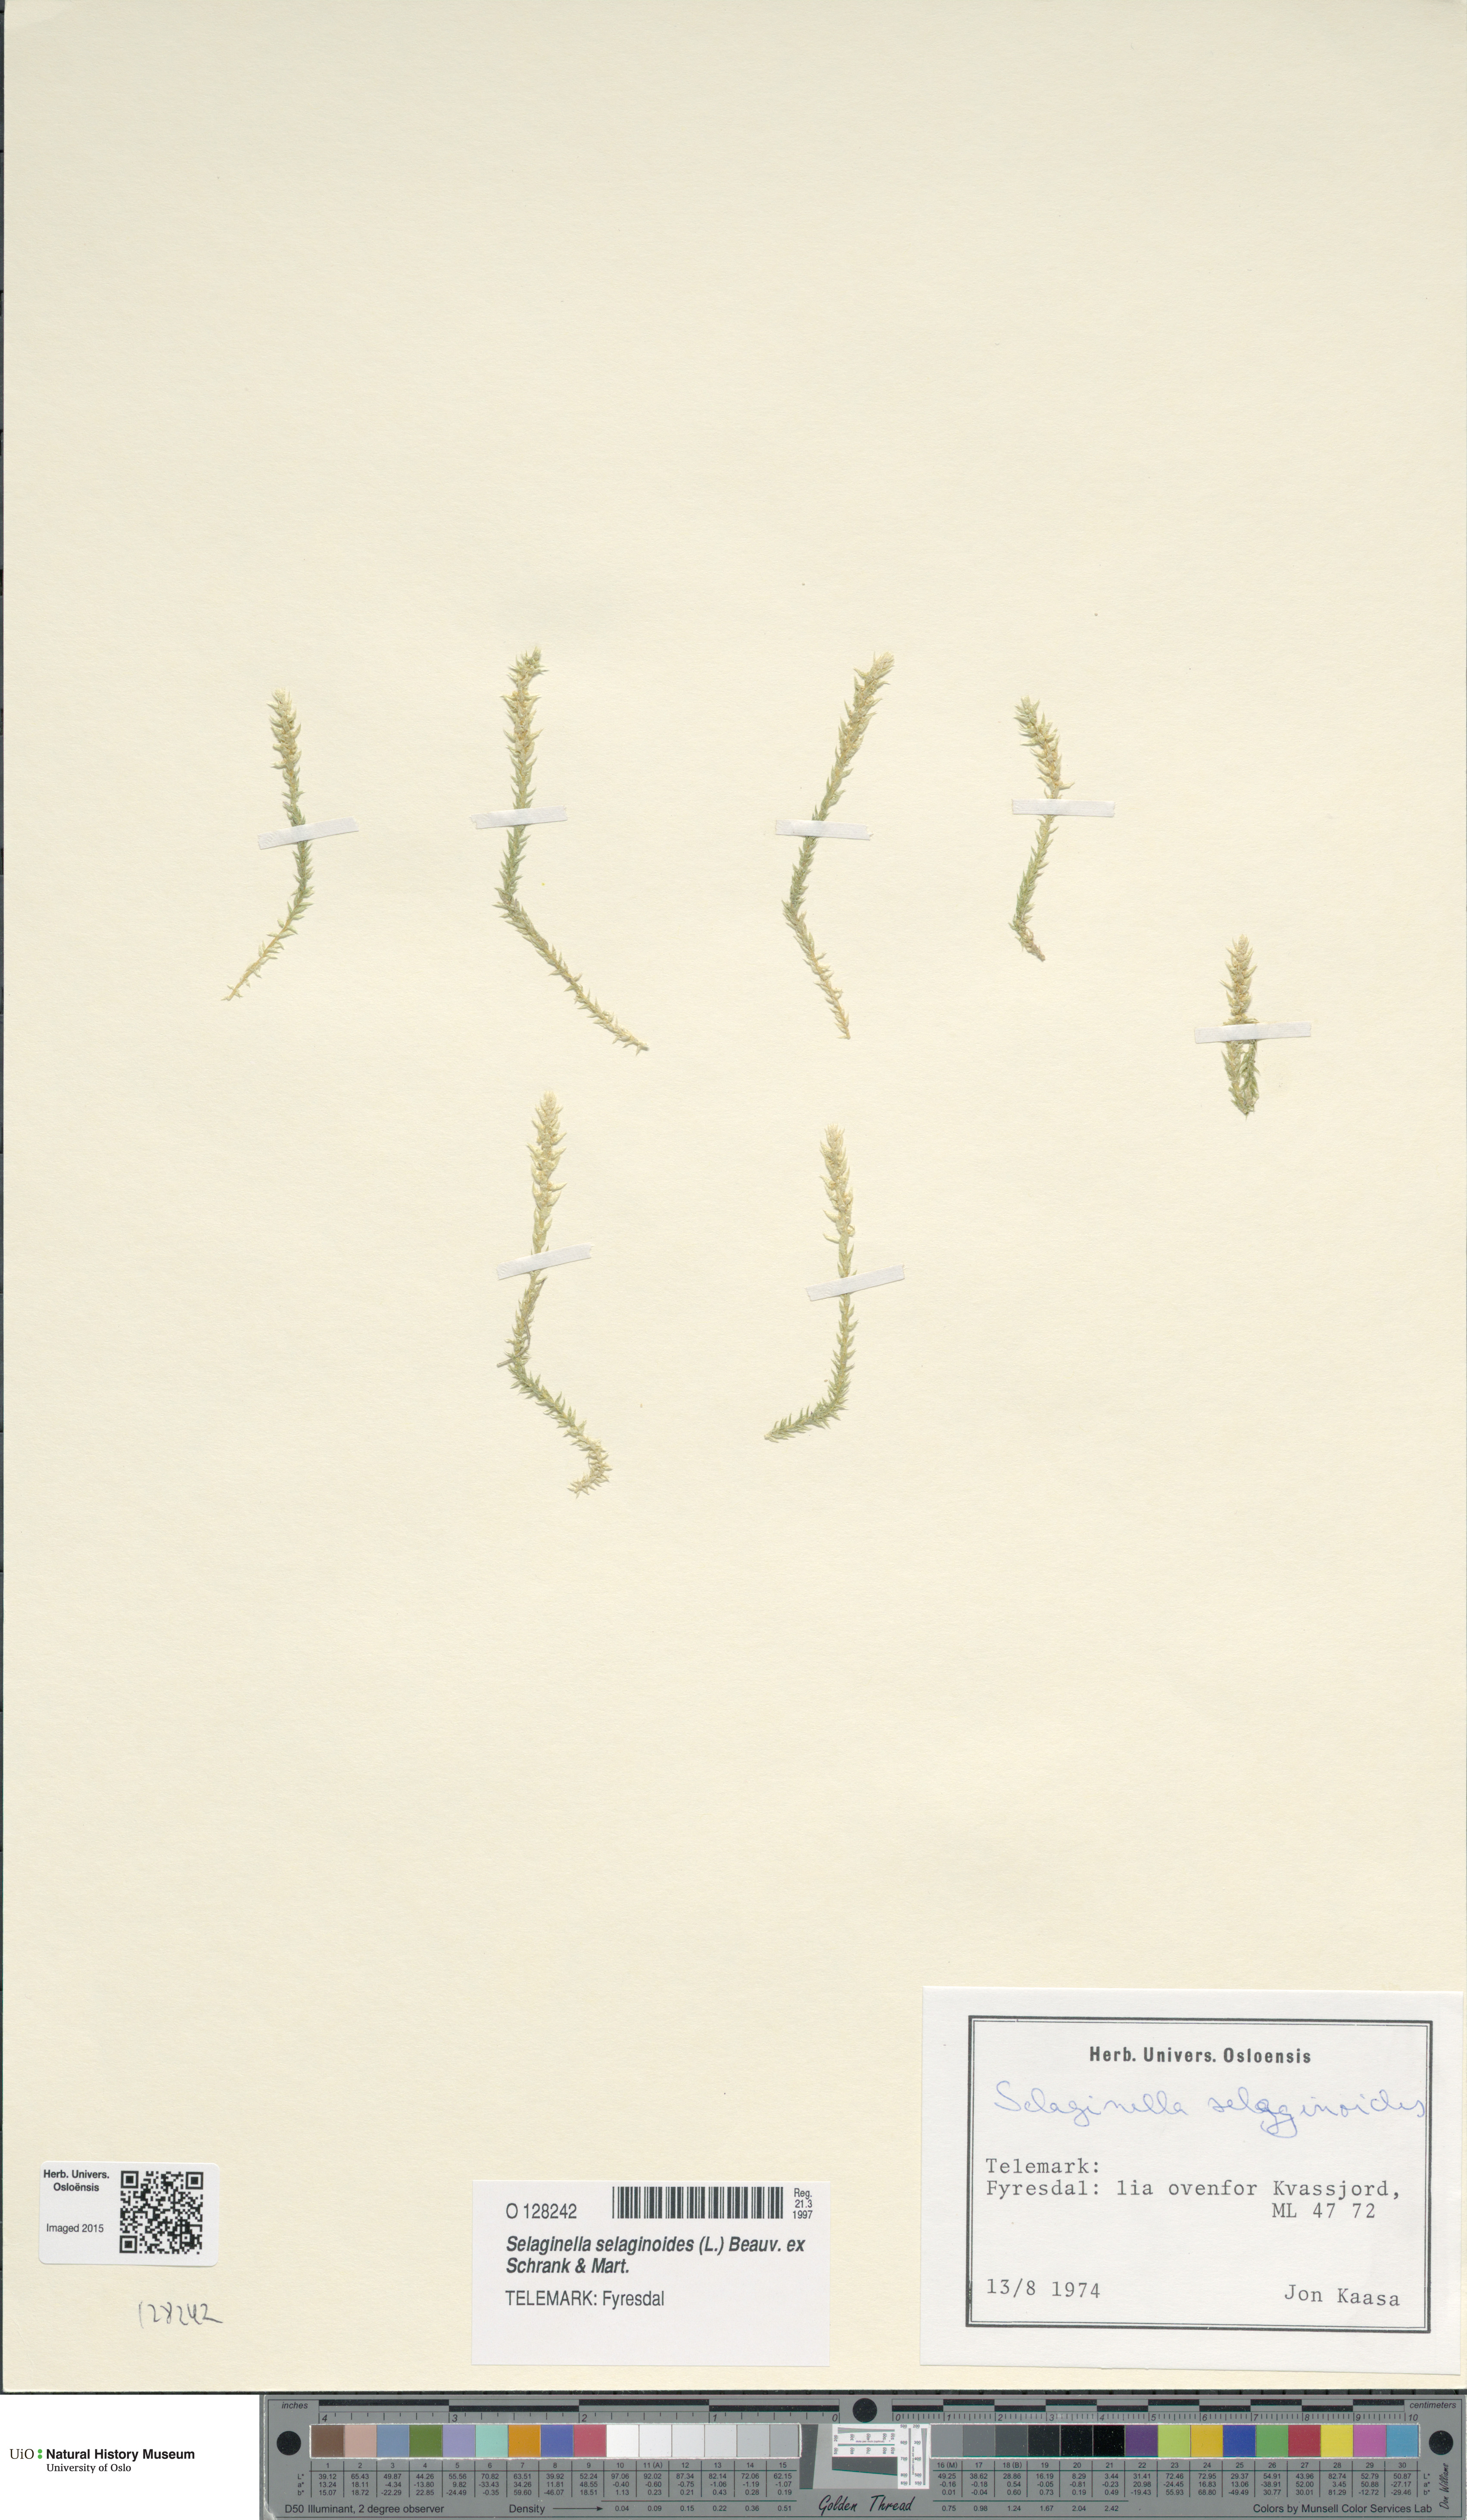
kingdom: Plantae
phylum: Tracheophyta
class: Lycopodiopsida
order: Selaginellales
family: Selaginellaceae
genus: Selaginella
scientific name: Selaginella selaginoides
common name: Prickly mountain-moss
